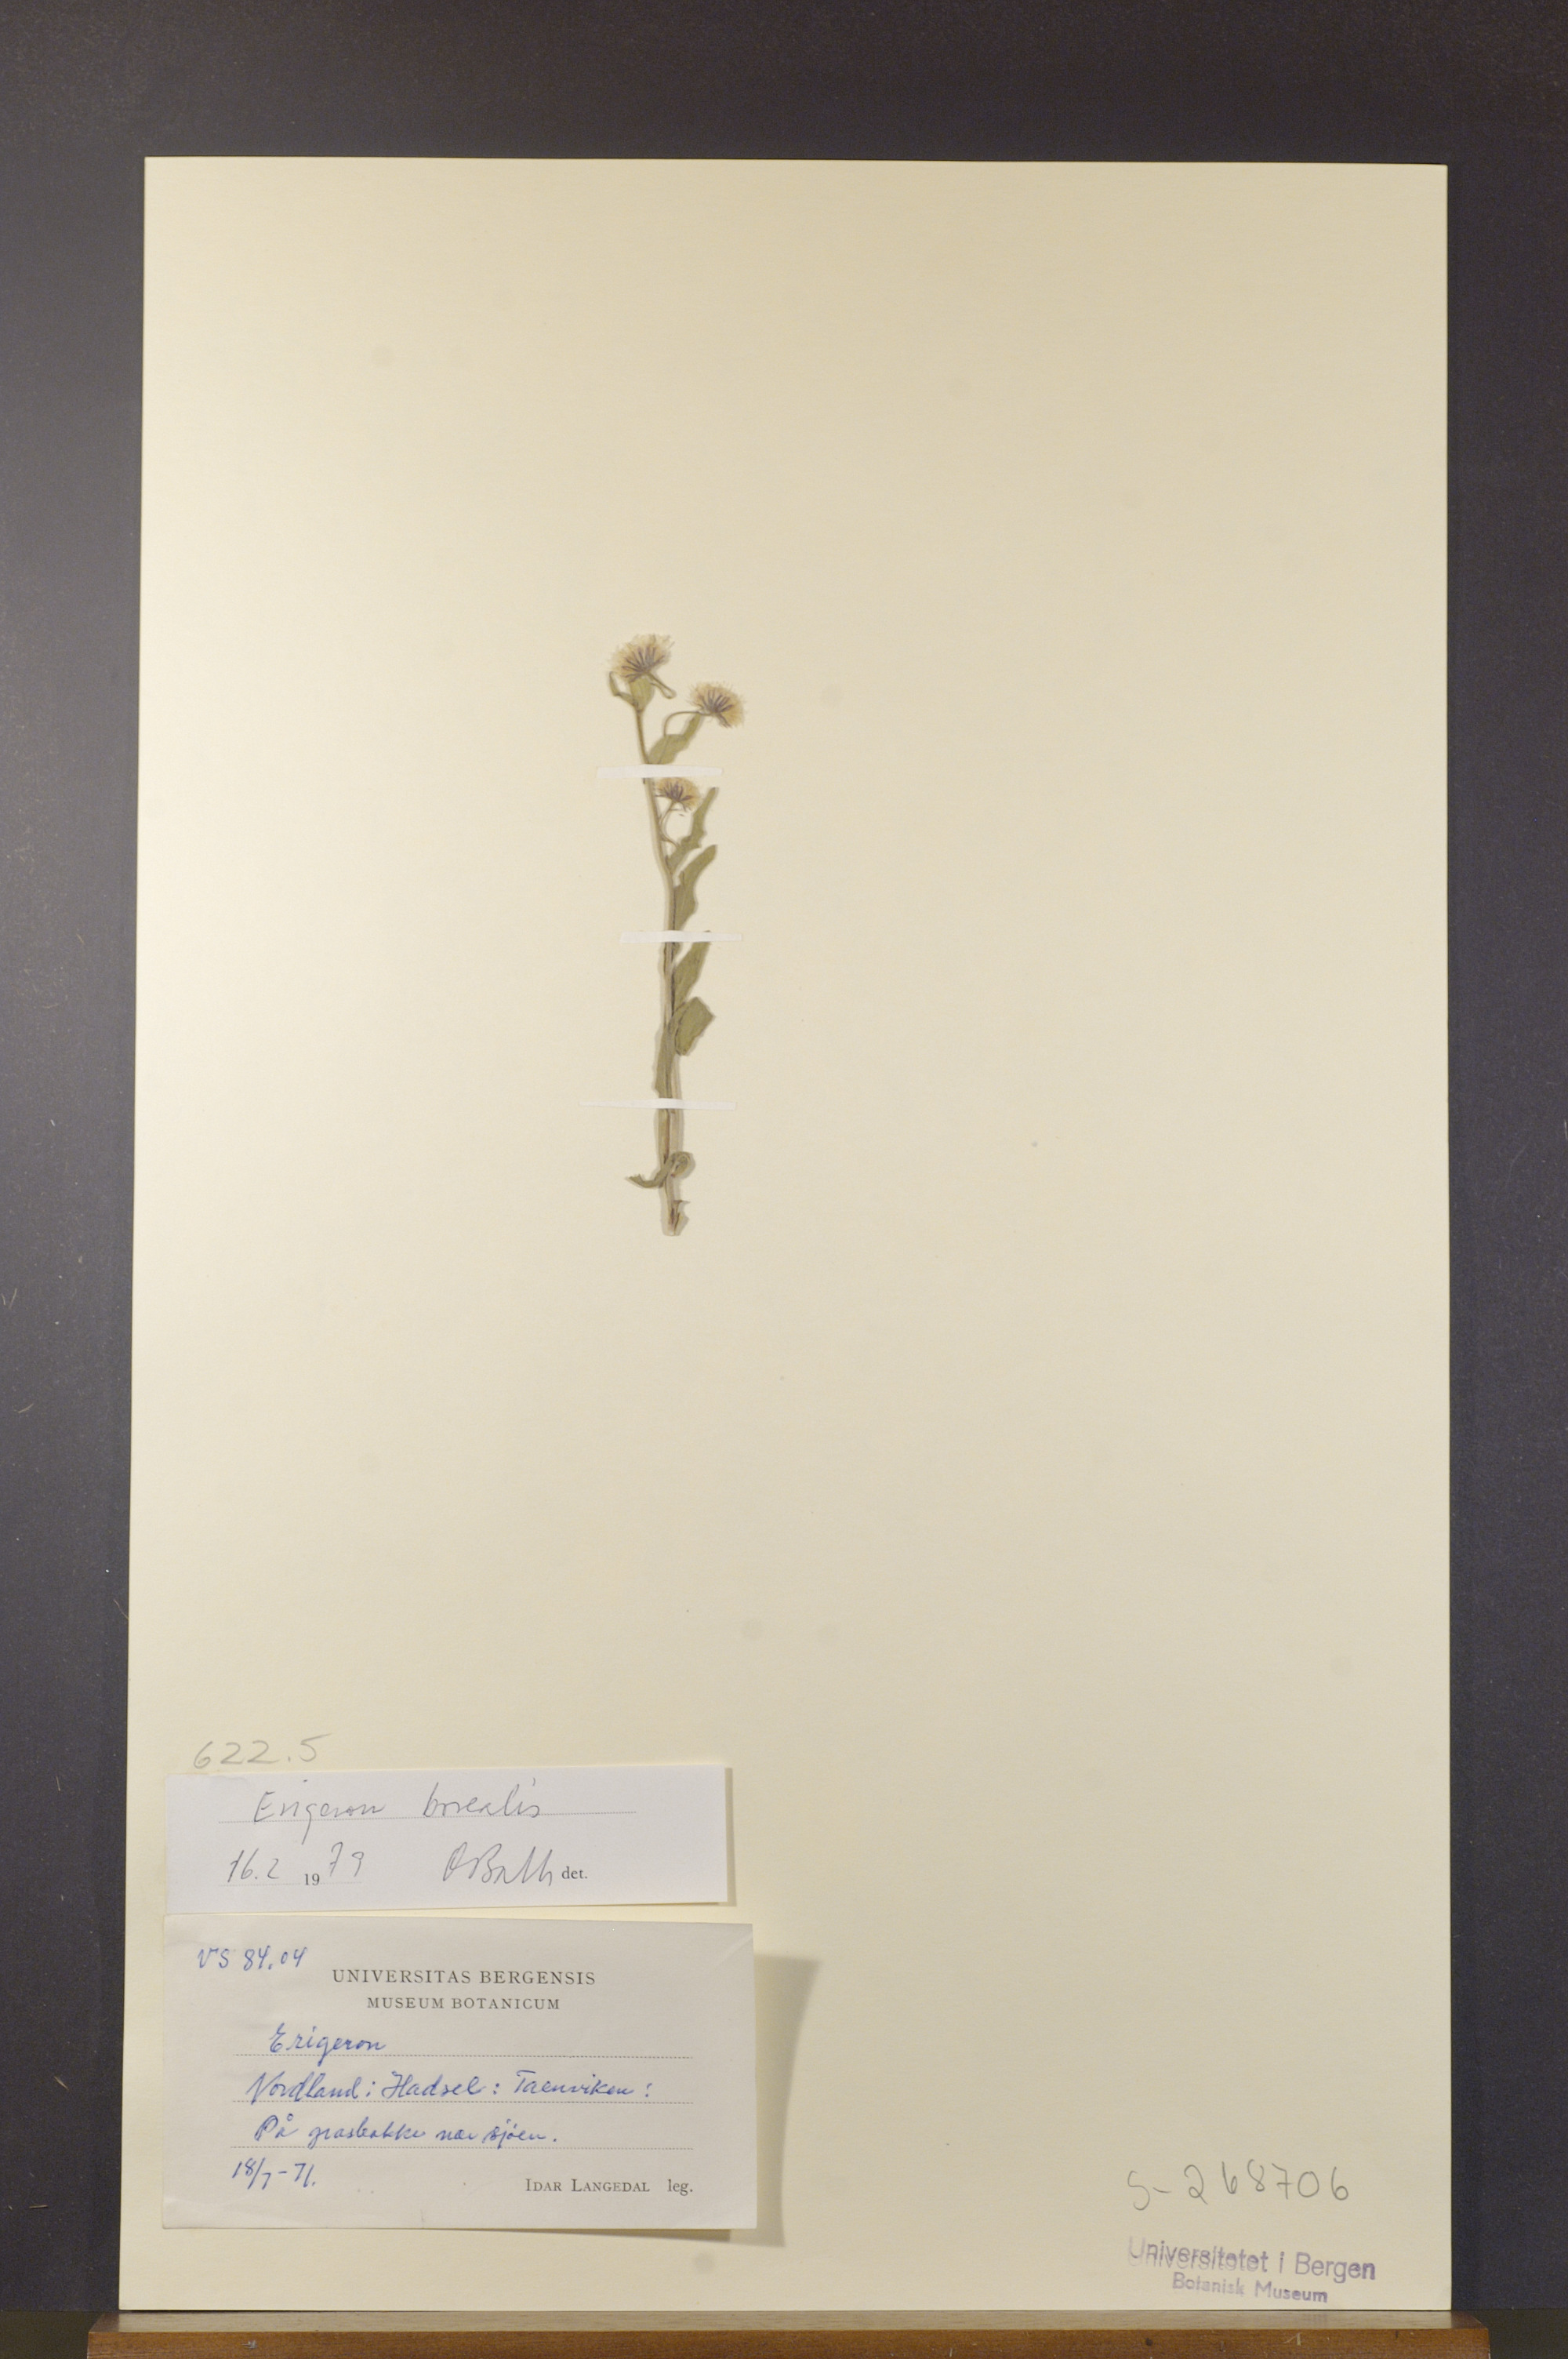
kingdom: Plantae
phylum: Tracheophyta
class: Magnoliopsida
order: Asterales
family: Asteraceae
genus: Erigeron
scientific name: Erigeron borealis
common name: Alpine fleabane
